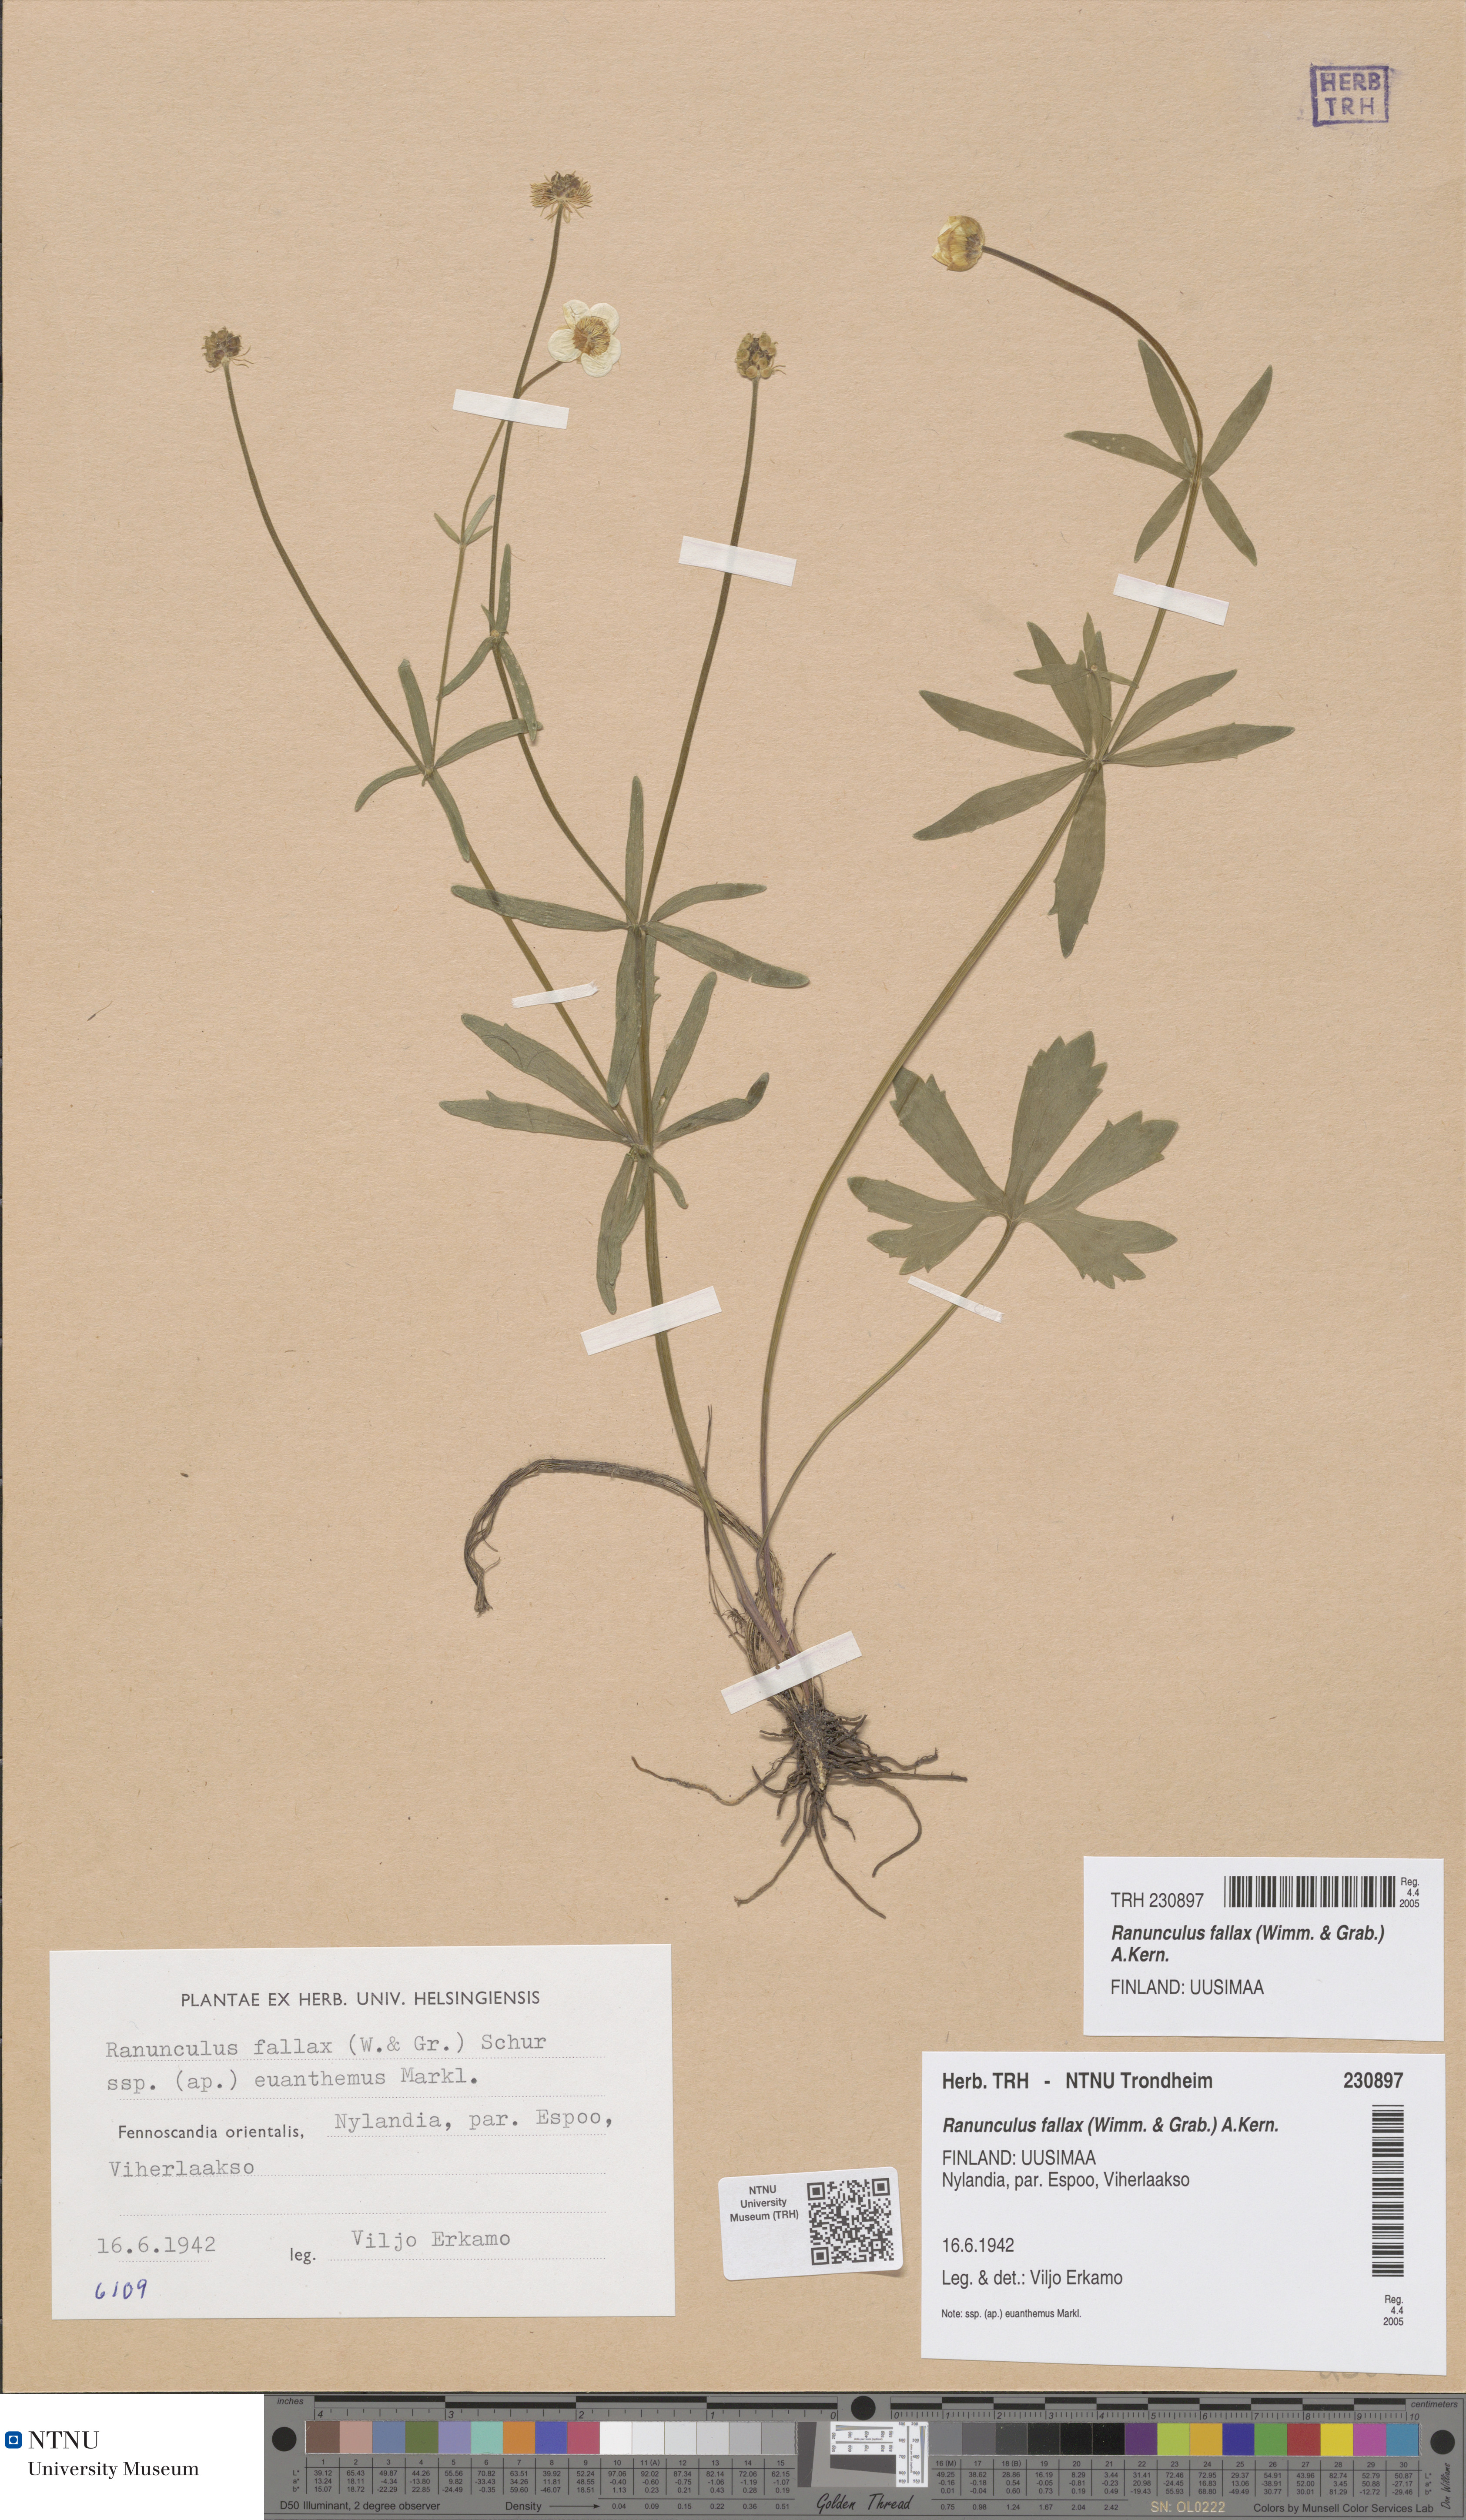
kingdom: Plantae
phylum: Tracheophyta
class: Magnoliopsida
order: Ranunculales
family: Ranunculaceae
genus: Ranunculus
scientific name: Ranunculus fallax
